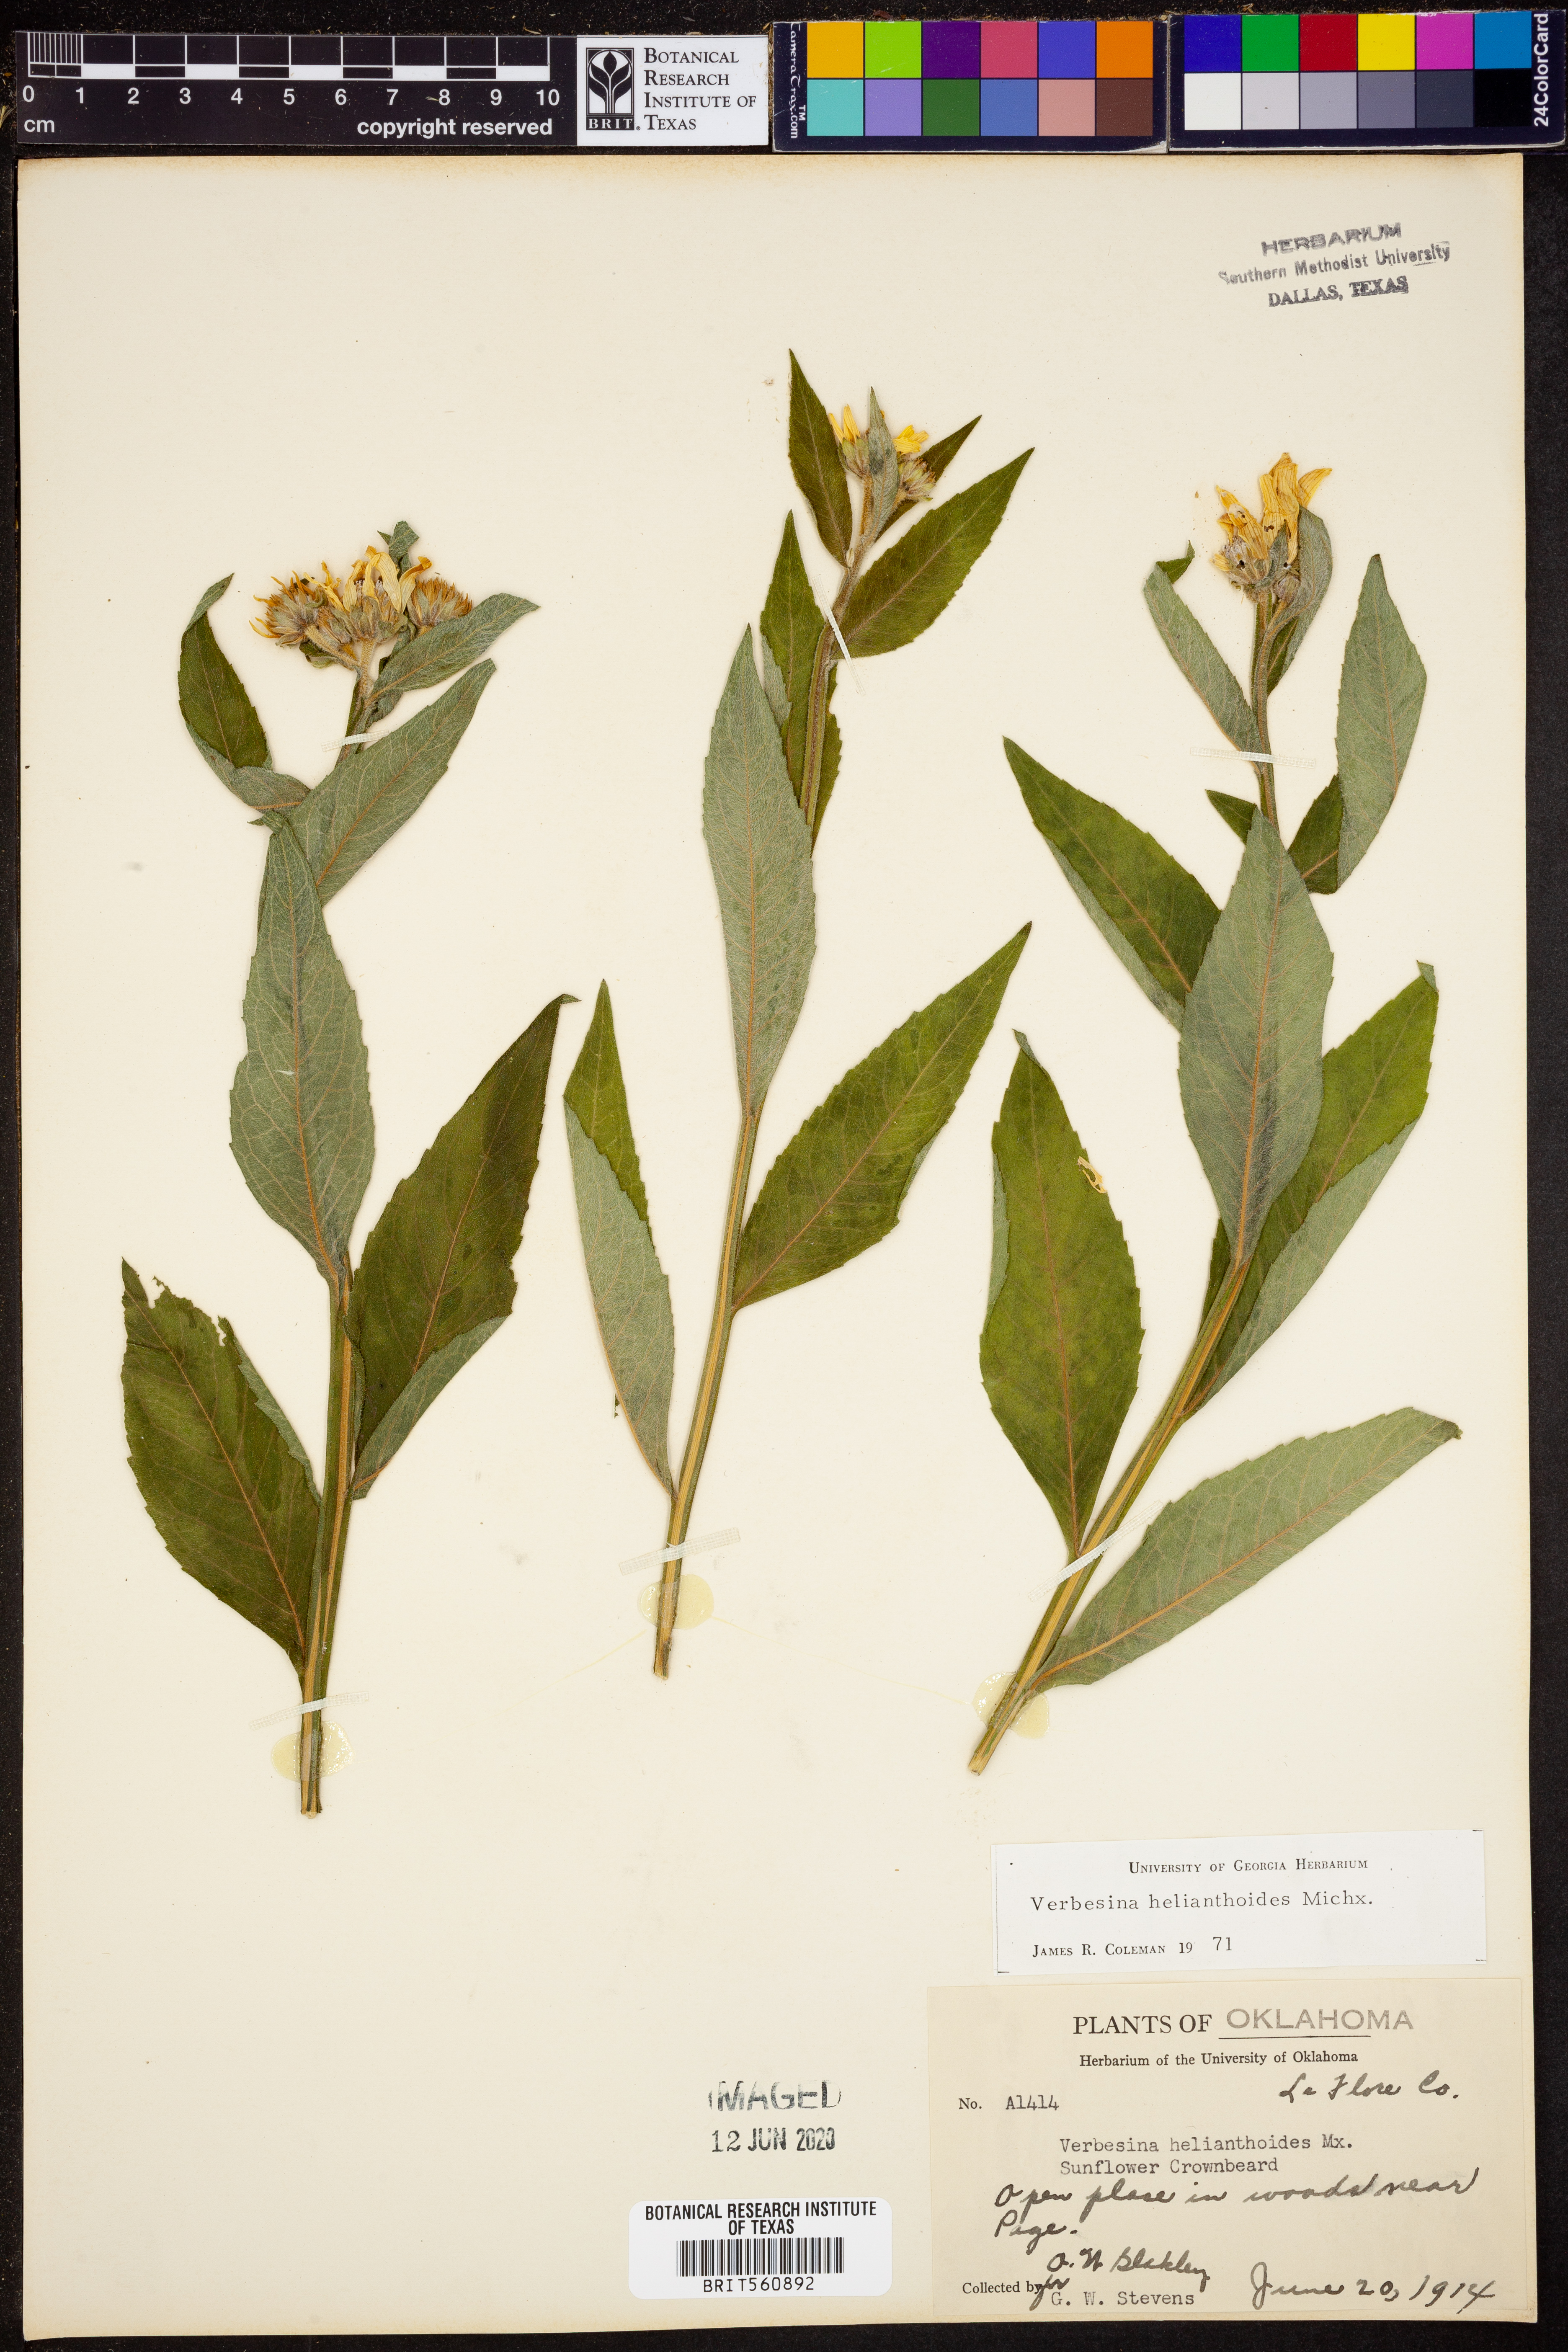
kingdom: Plantae
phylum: Tracheophyta
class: Magnoliopsida
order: Asterales
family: Asteraceae
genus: Verbesina
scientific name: Verbesina helianthoides
